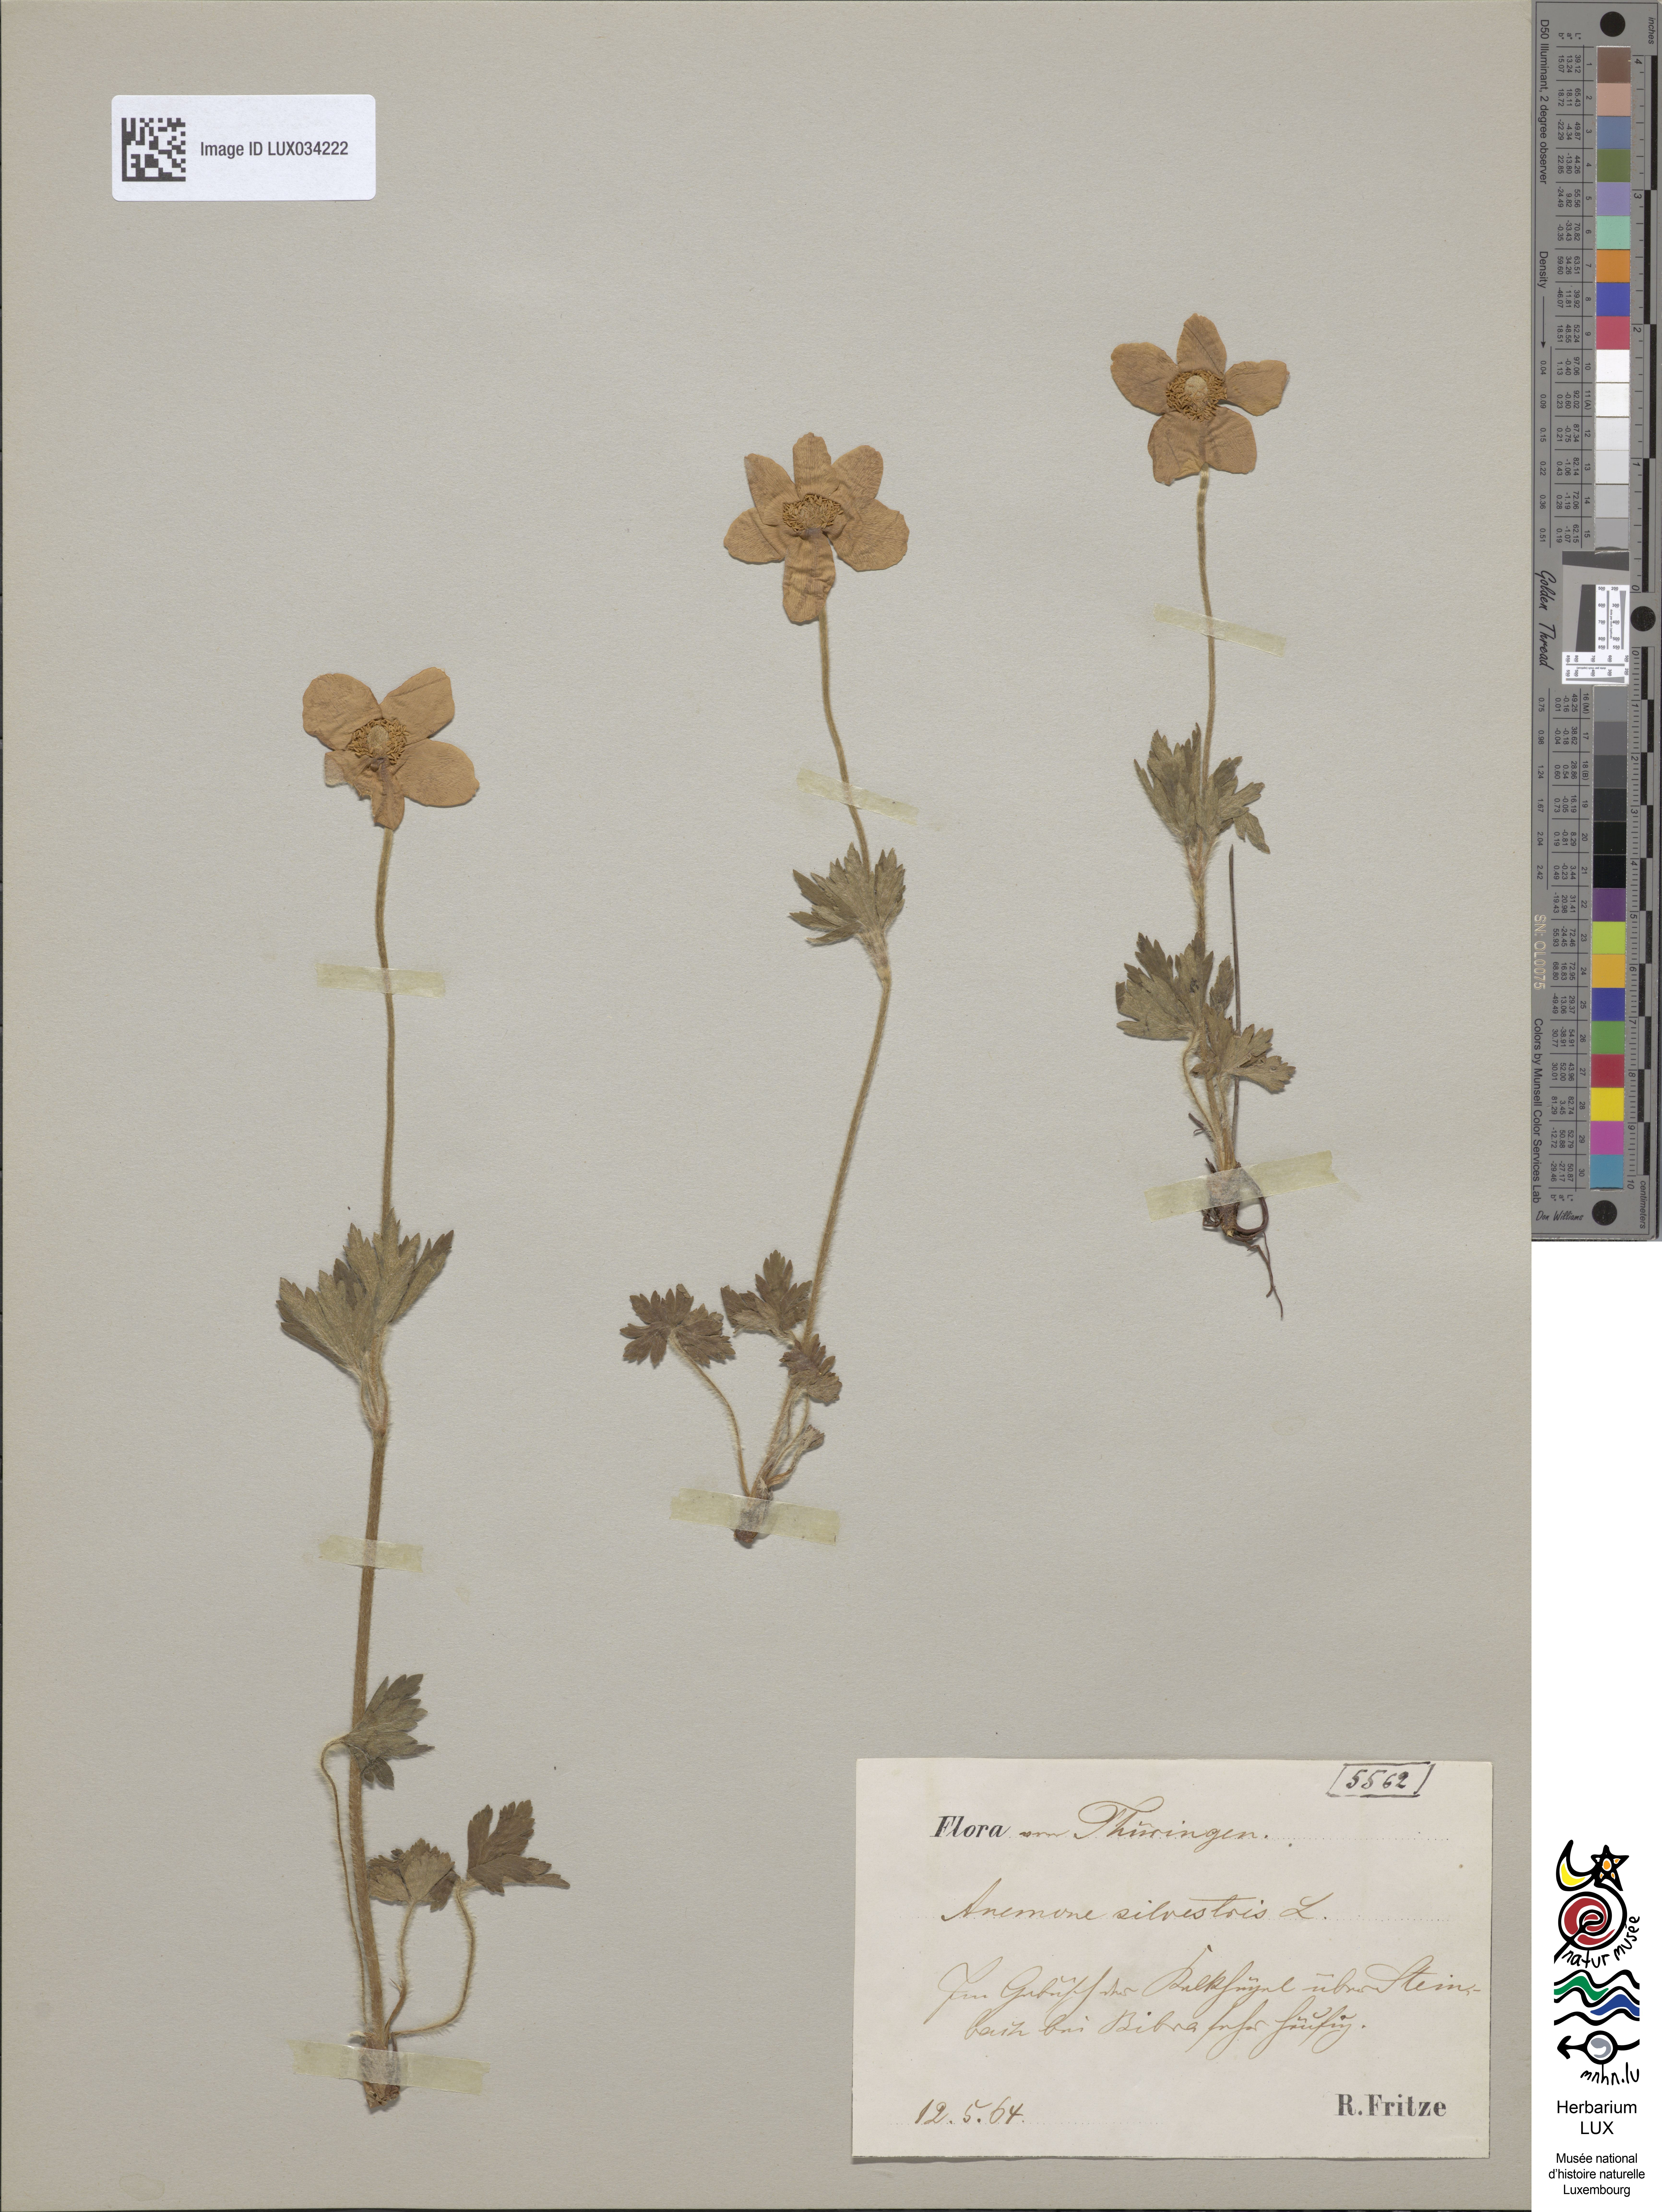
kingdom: Plantae
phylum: Tracheophyta
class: Magnoliopsida
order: Ranunculales
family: Ranunculaceae
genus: Anemone
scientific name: Anemone sylvestris
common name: Snowdrop anemone
